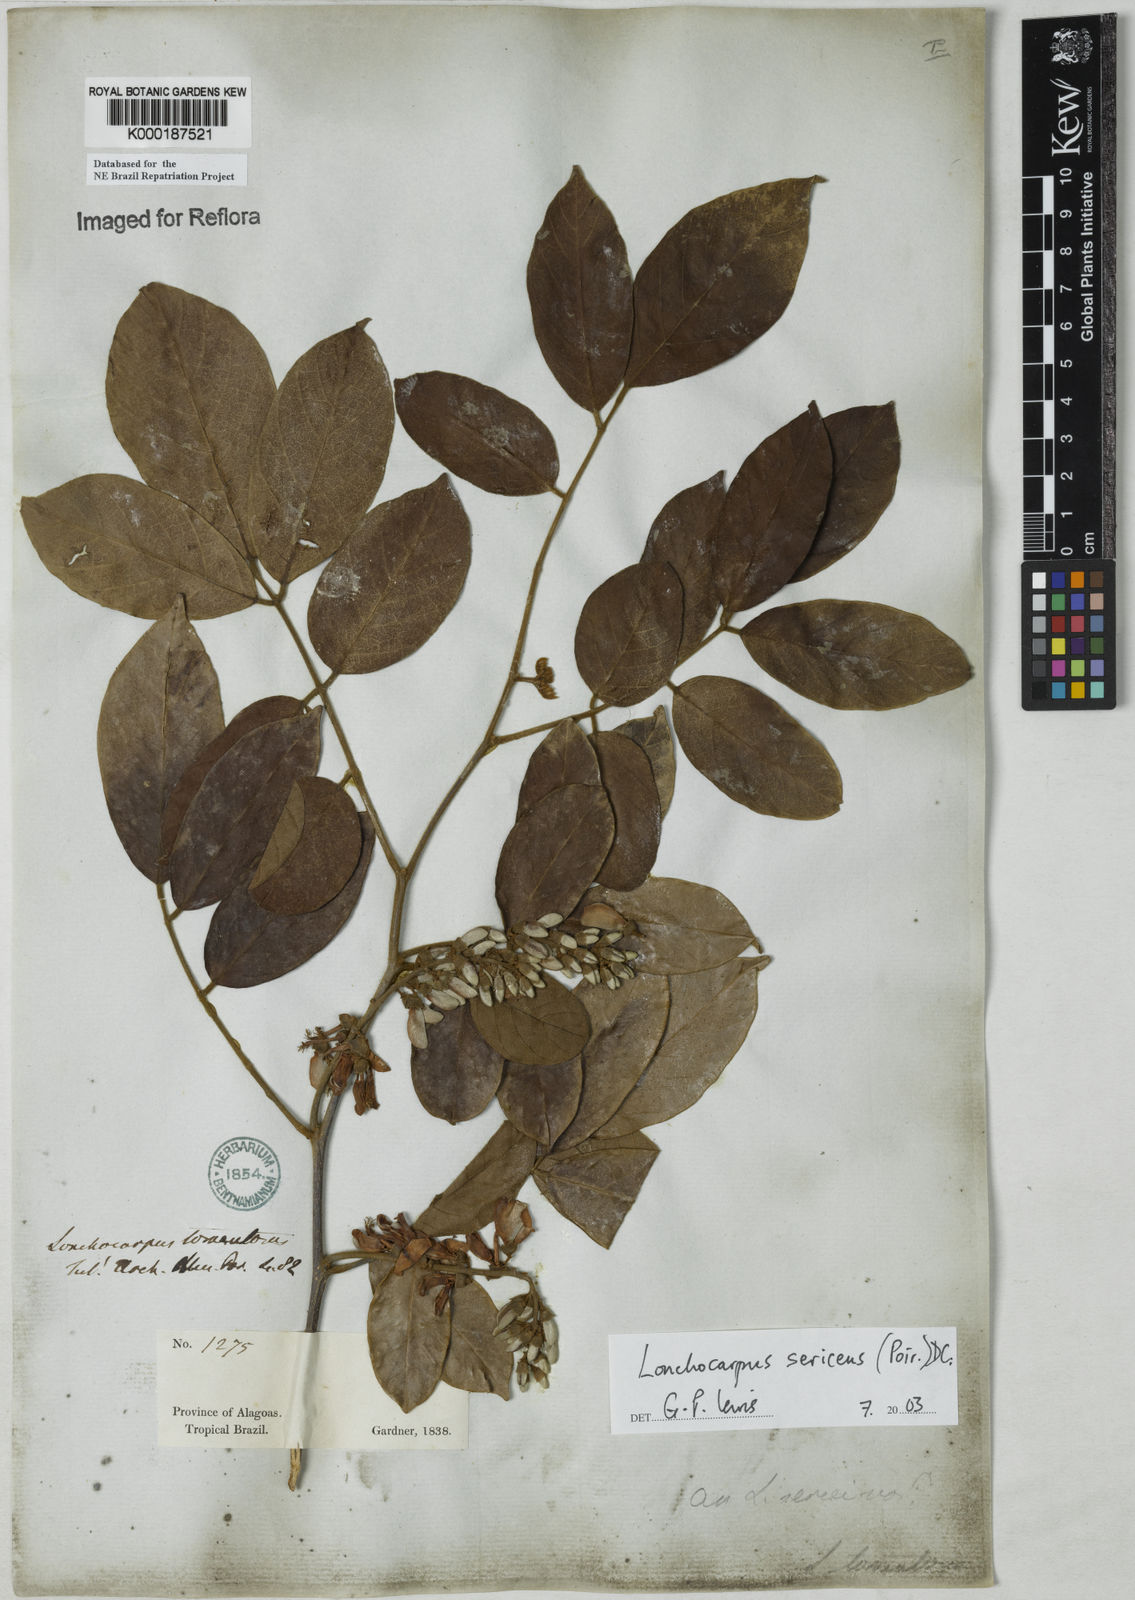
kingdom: Plantae
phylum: Tracheophyta
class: Magnoliopsida
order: Fabales
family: Fabaceae
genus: Lonchocarpus
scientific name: Lonchocarpus sericeus
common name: Savonette
